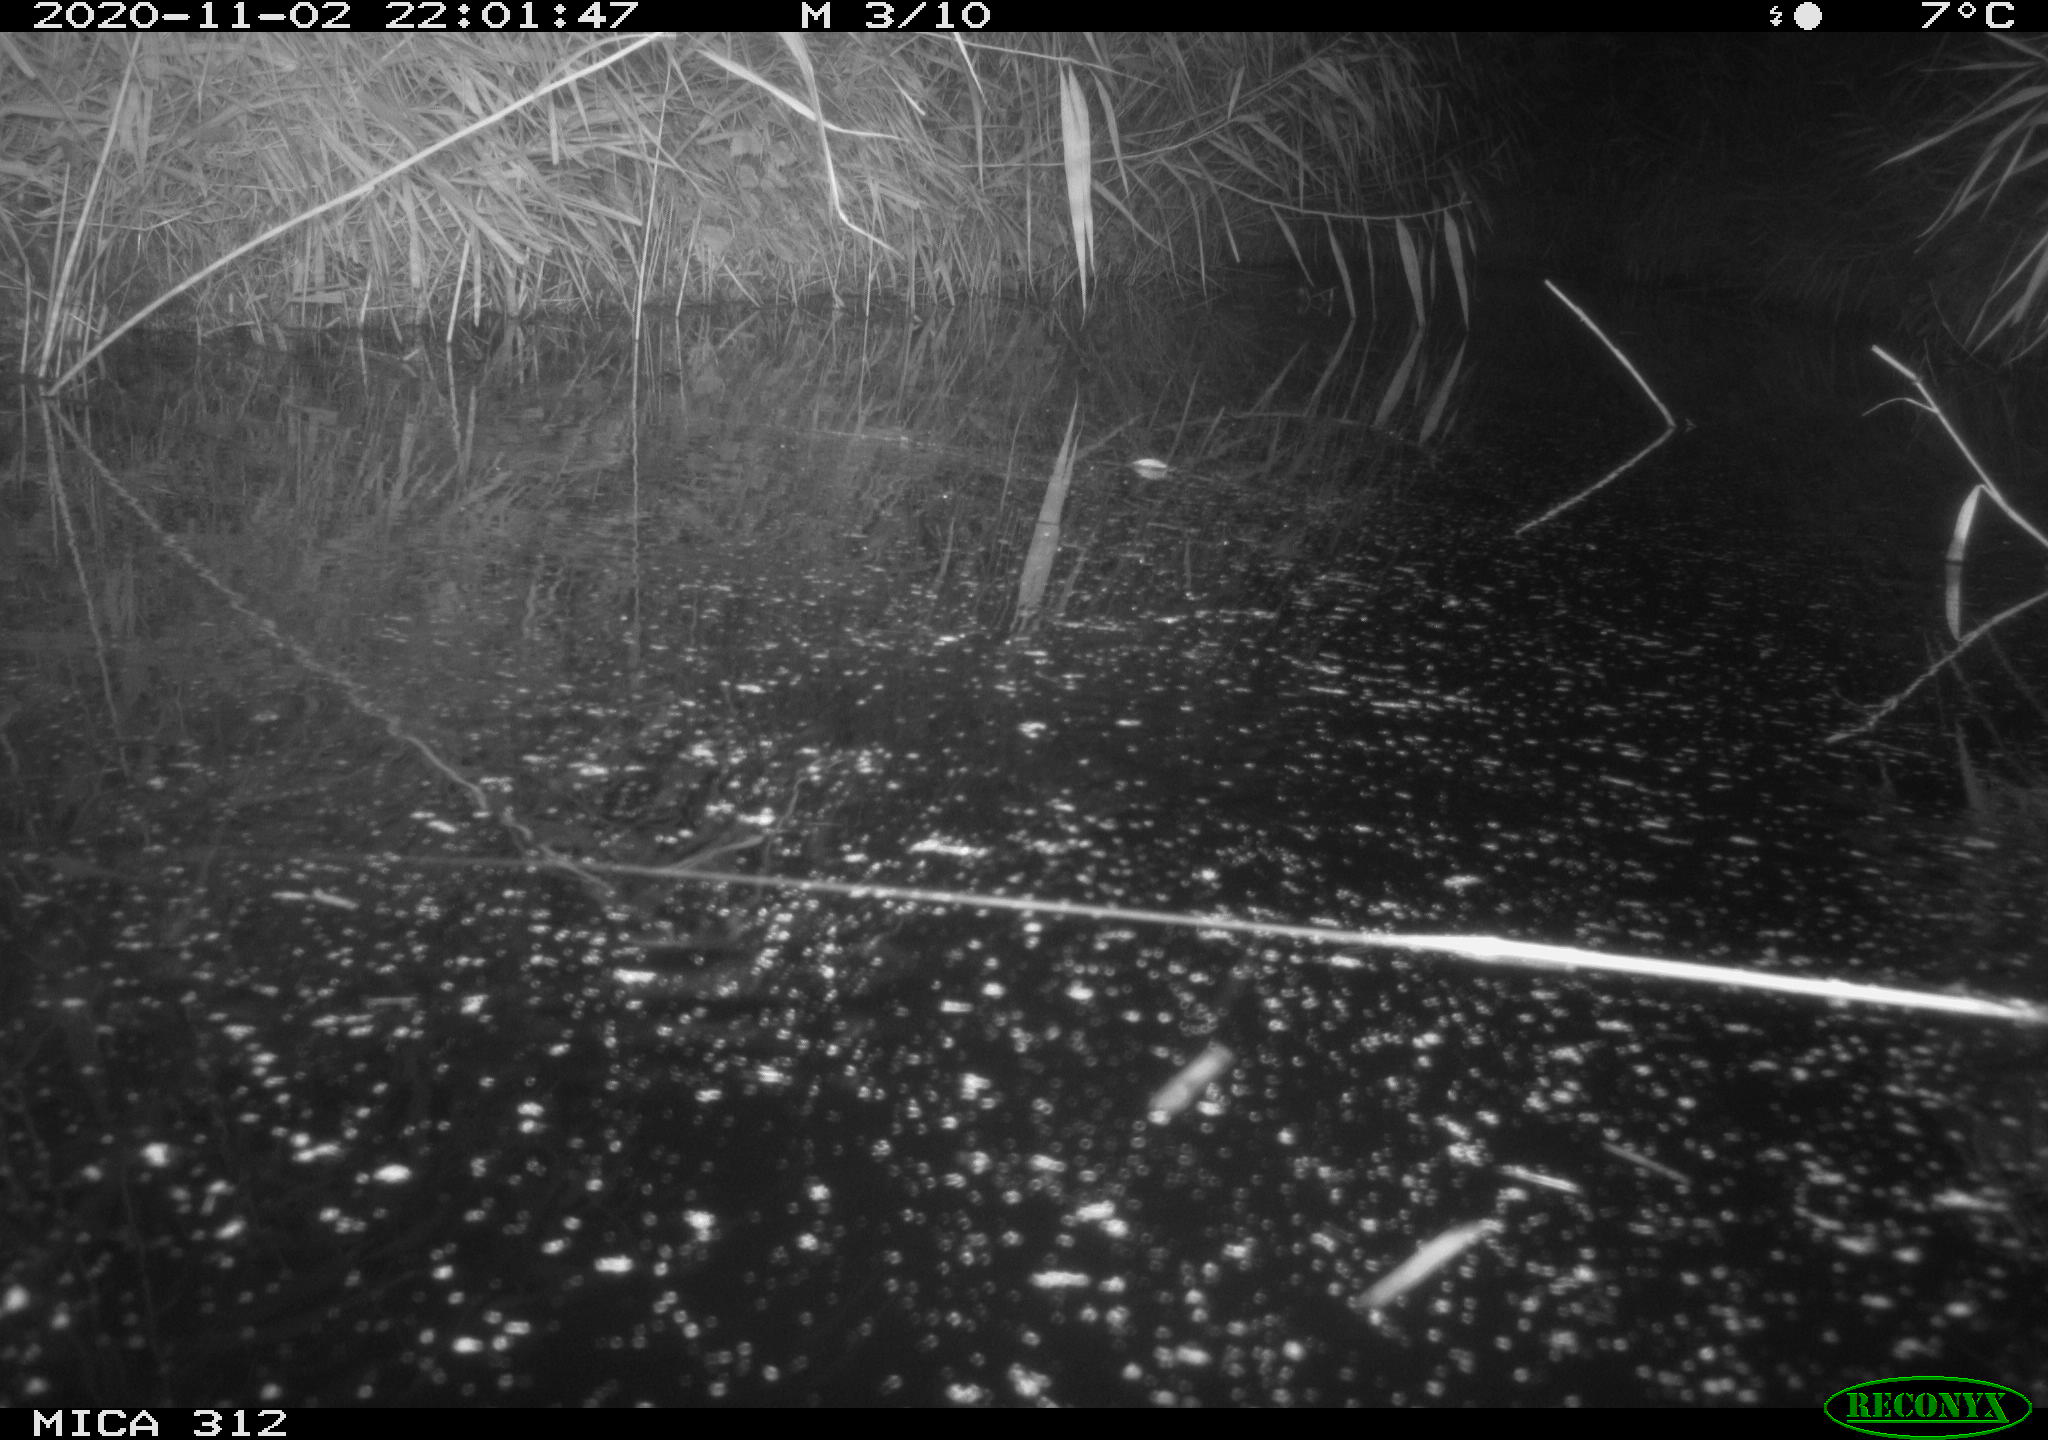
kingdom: Animalia
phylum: Chordata
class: Mammalia
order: Rodentia
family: Muridae
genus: Rattus
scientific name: Rattus norvegicus
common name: Brown rat
